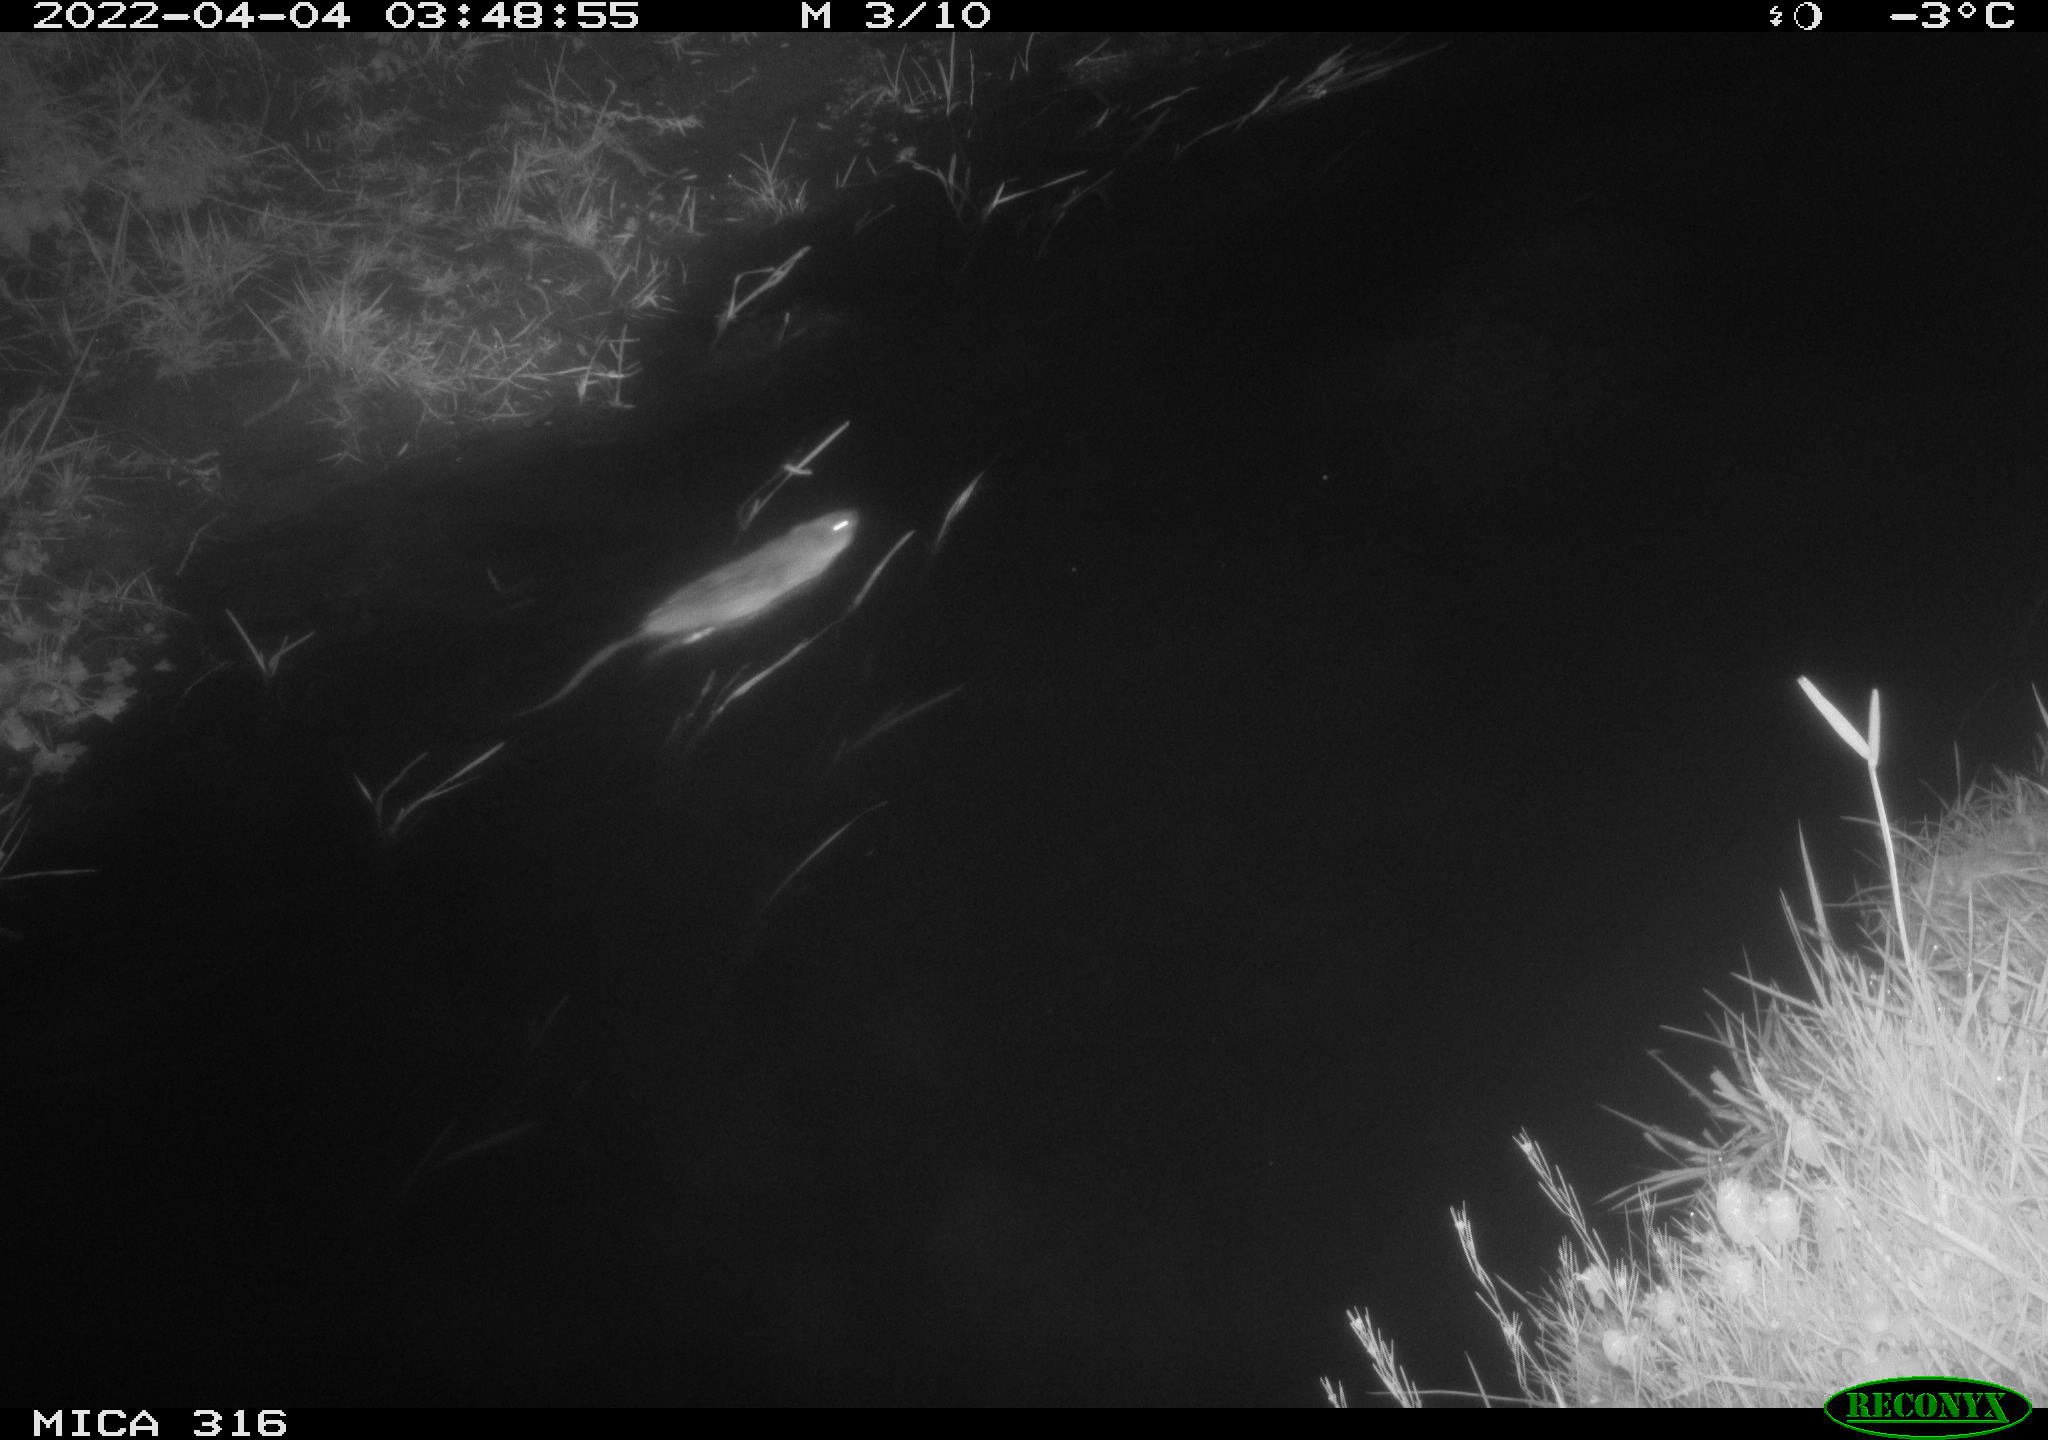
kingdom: Animalia
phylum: Chordata
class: Mammalia
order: Rodentia
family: Cricetidae
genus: Ondatra
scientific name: Ondatra zibethicus
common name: Muskrat
